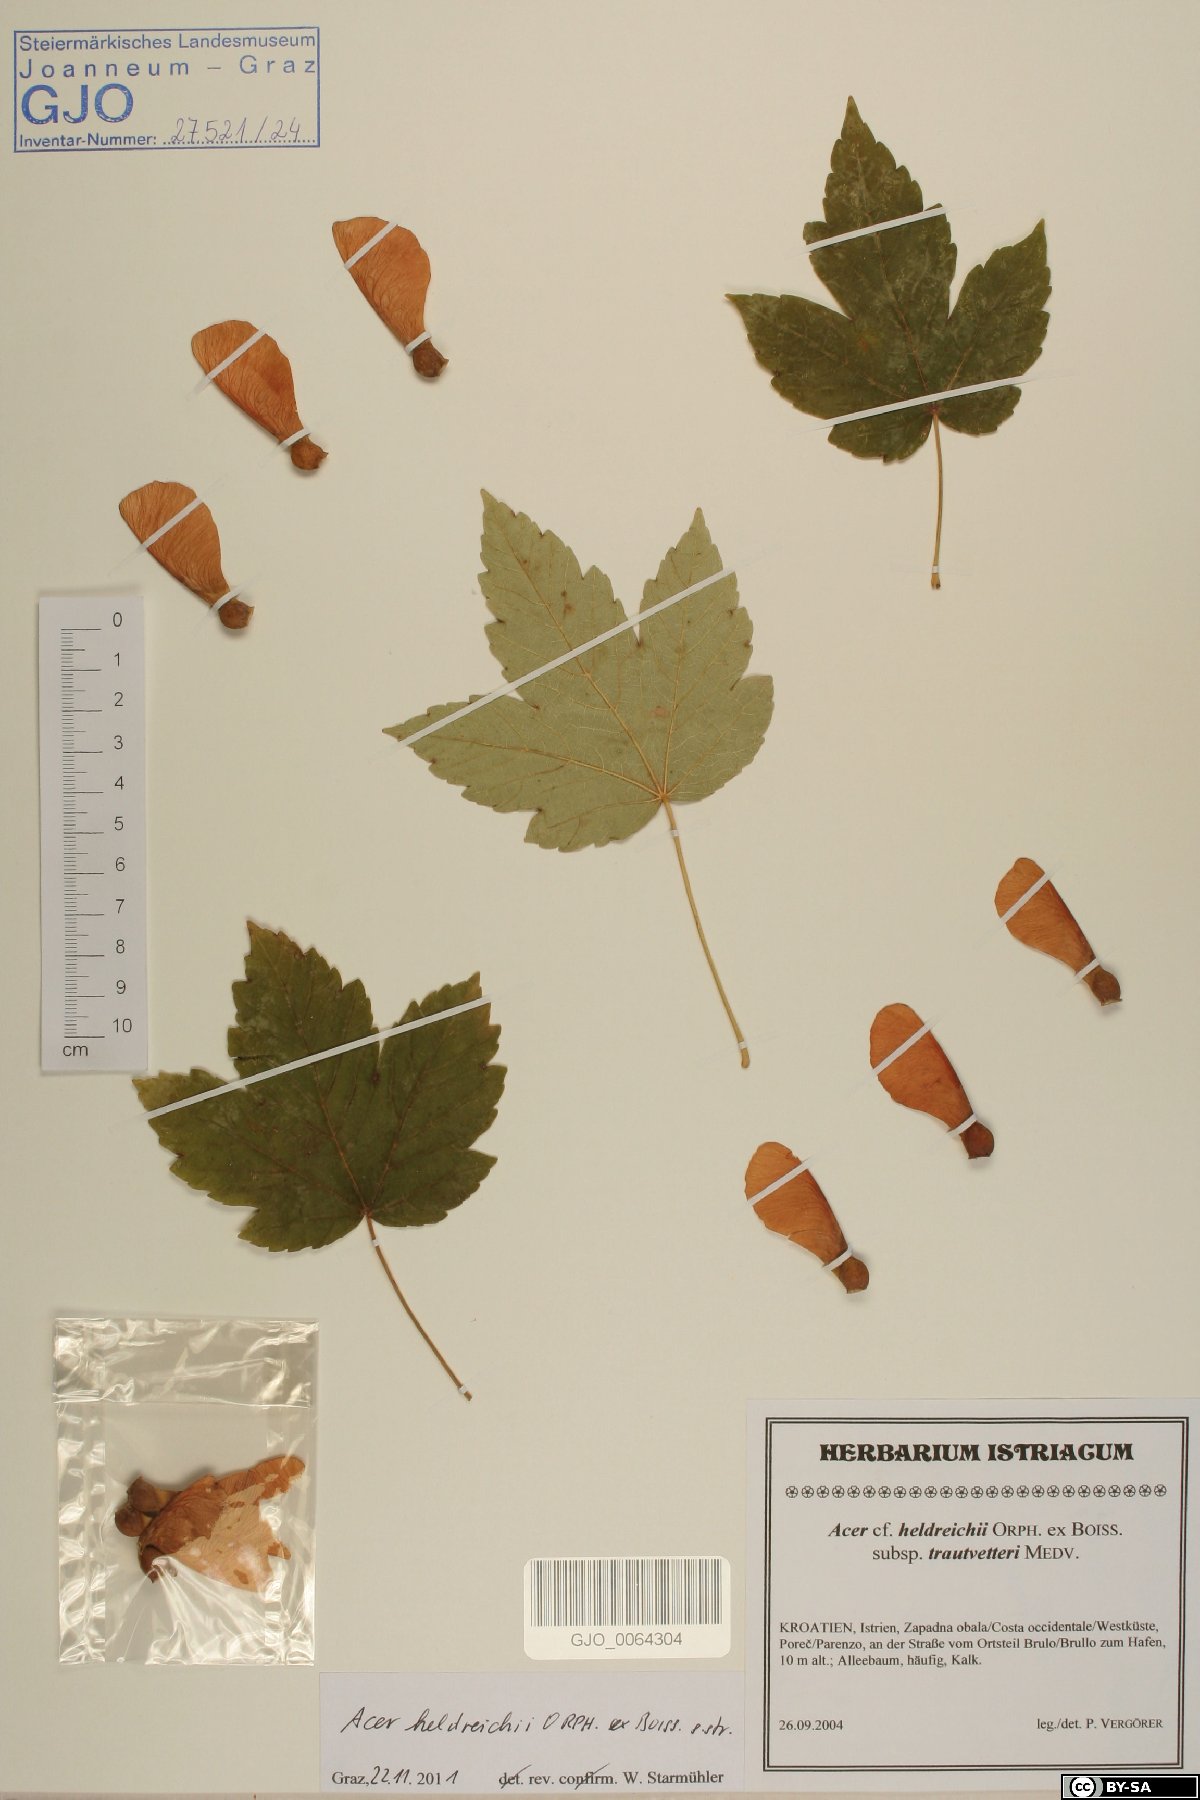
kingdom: Plantae
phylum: Tracheophyta
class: Magnoliopsida
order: Sapindales
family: Sapindaceae
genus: Acer
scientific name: Acer heldreichii
